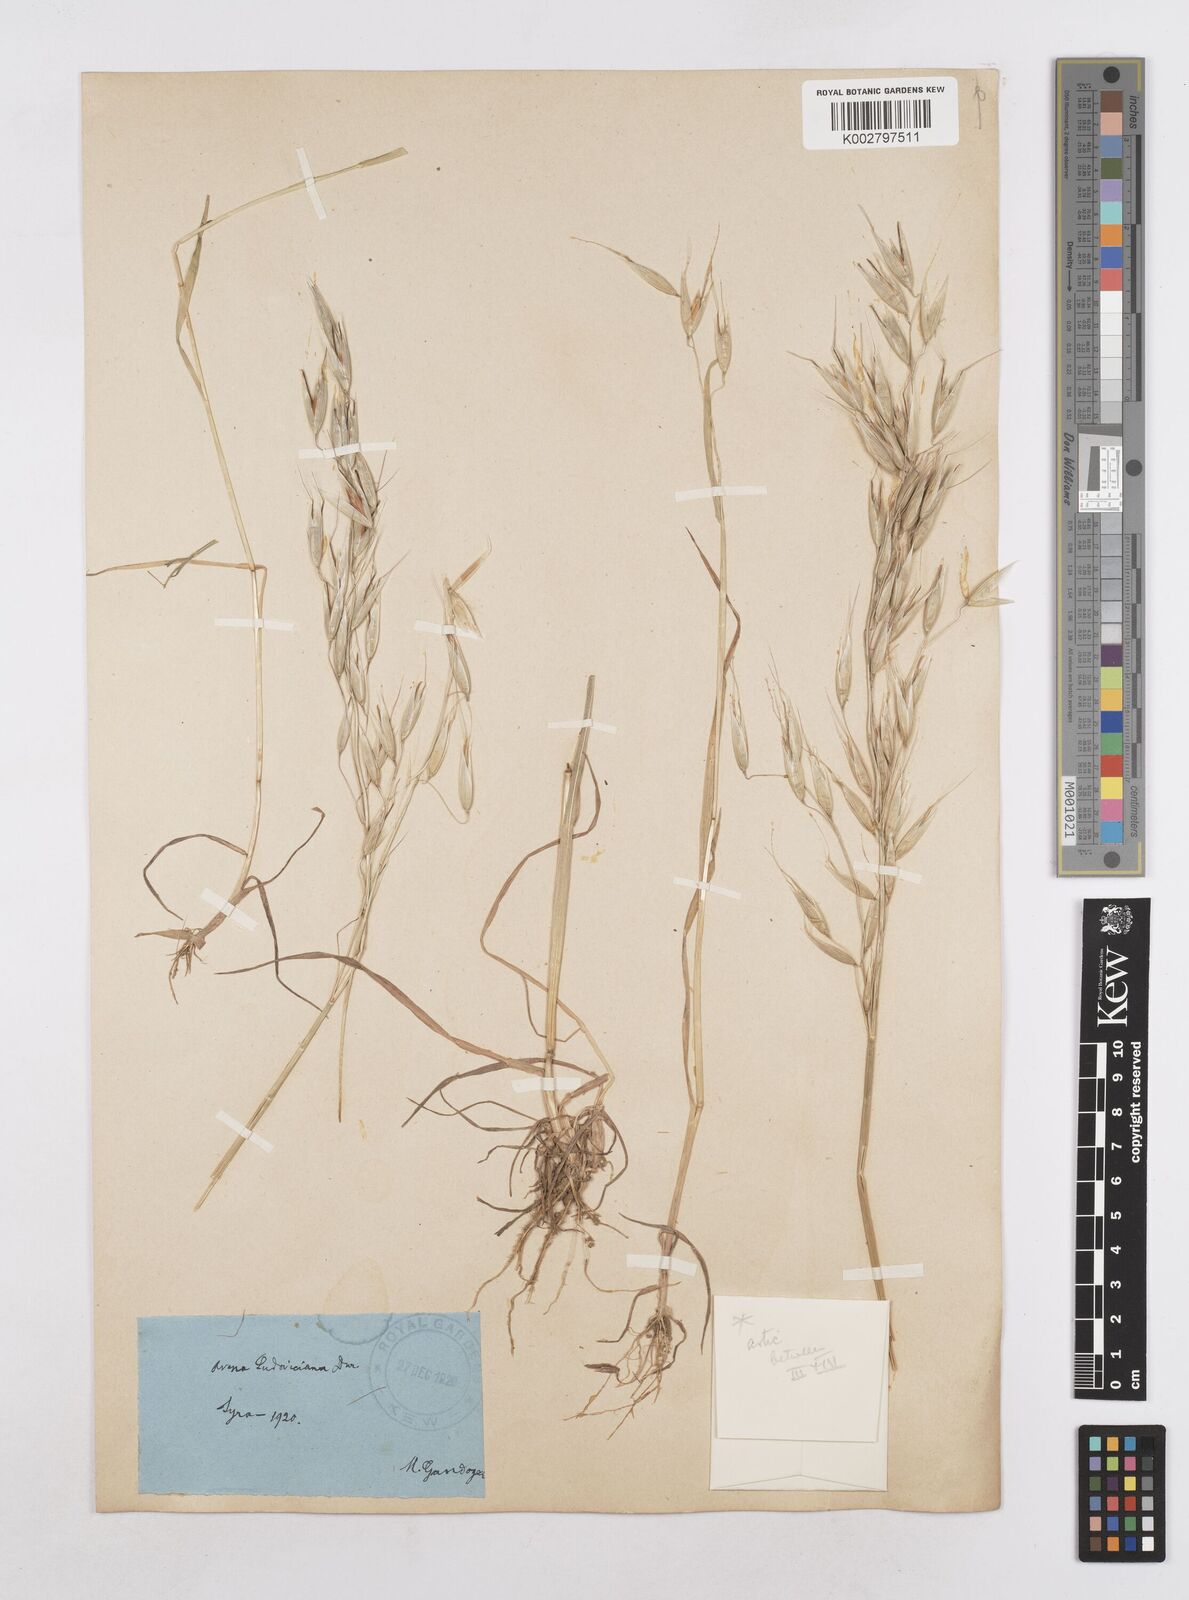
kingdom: Plantae
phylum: Tracheophyta
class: Liliopsida
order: Poales
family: Poaceae
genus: Avena
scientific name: Avena fatua
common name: Wild oat
